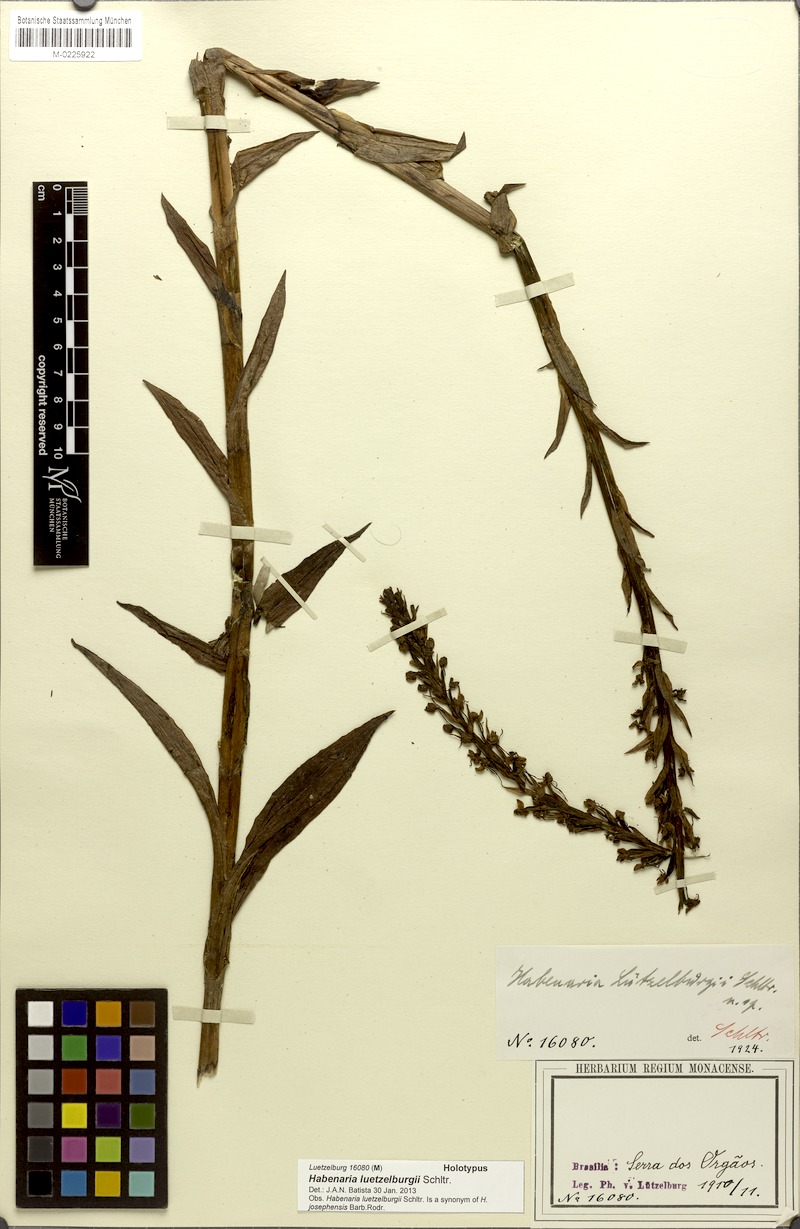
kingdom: Plantae
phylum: Tracheophyta
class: Liliopsida
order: Asparagales
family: Orchidaceae
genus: Habenaria
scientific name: Habenaria josephensis
